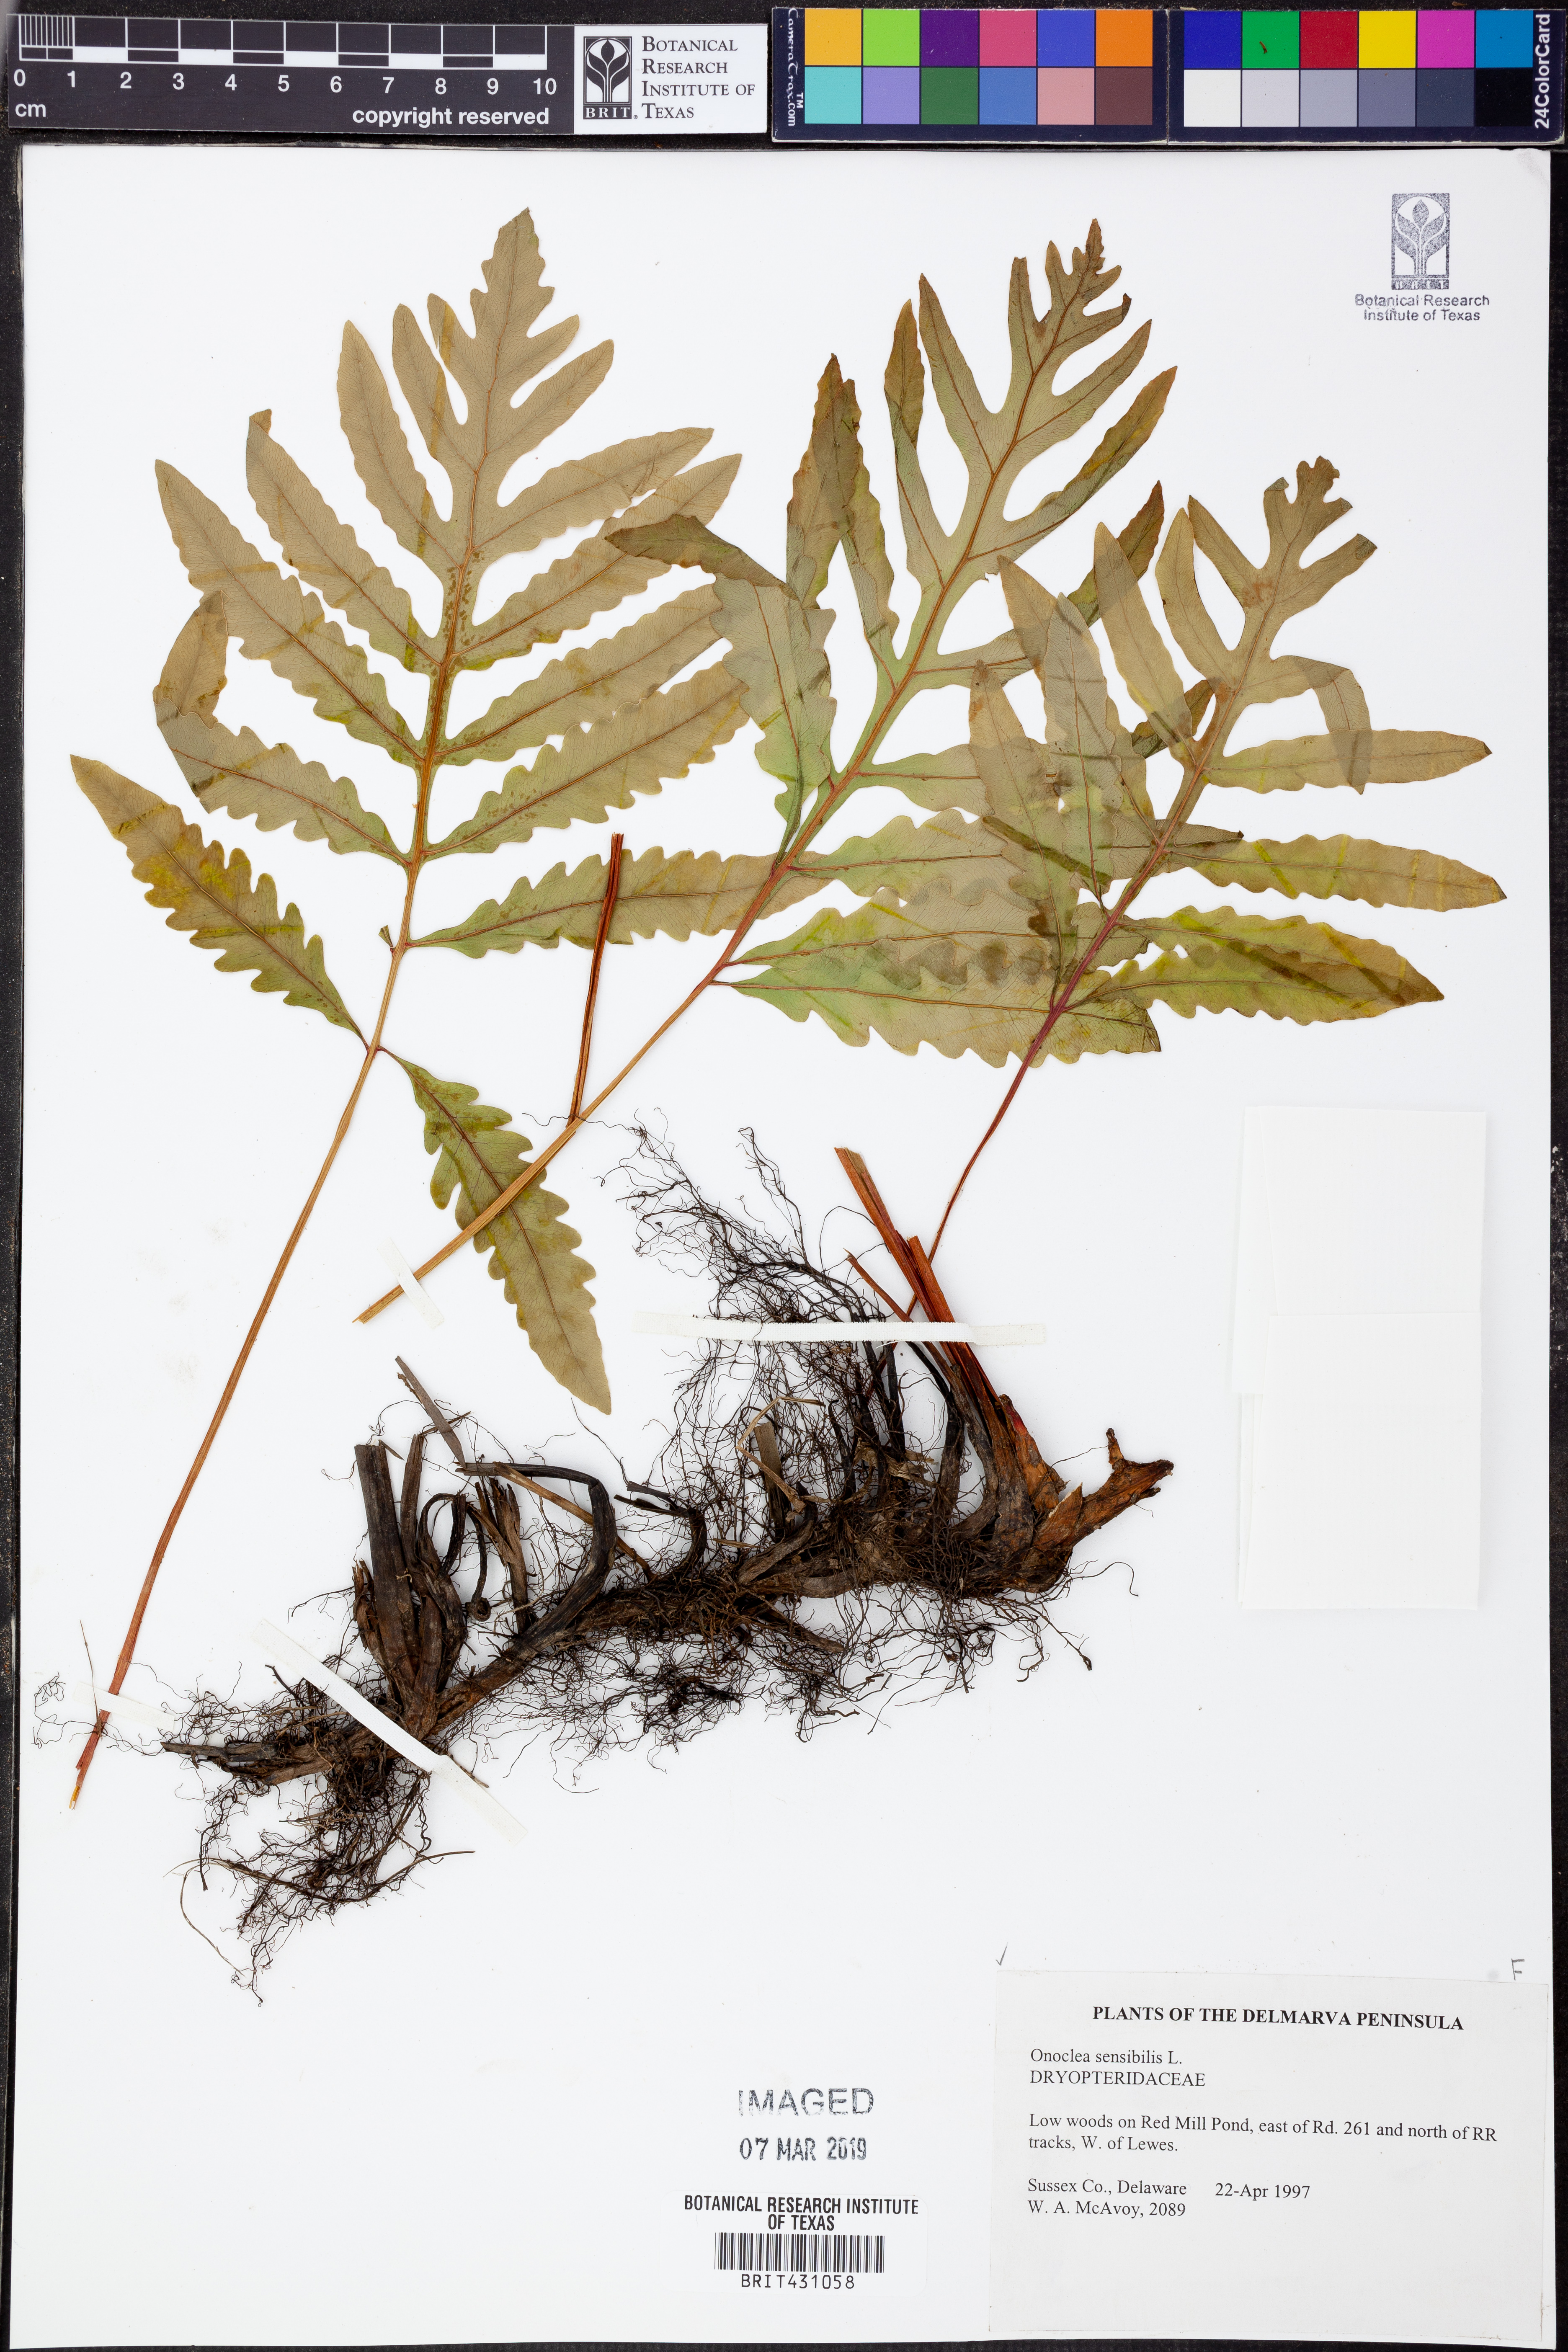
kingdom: Plantae
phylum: Tracheophyta
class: Polypodiopsida
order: Polypodiales
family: Onocleaceae
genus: Onoclea
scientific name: Onoclea sensibilis
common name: Sensitive fern
